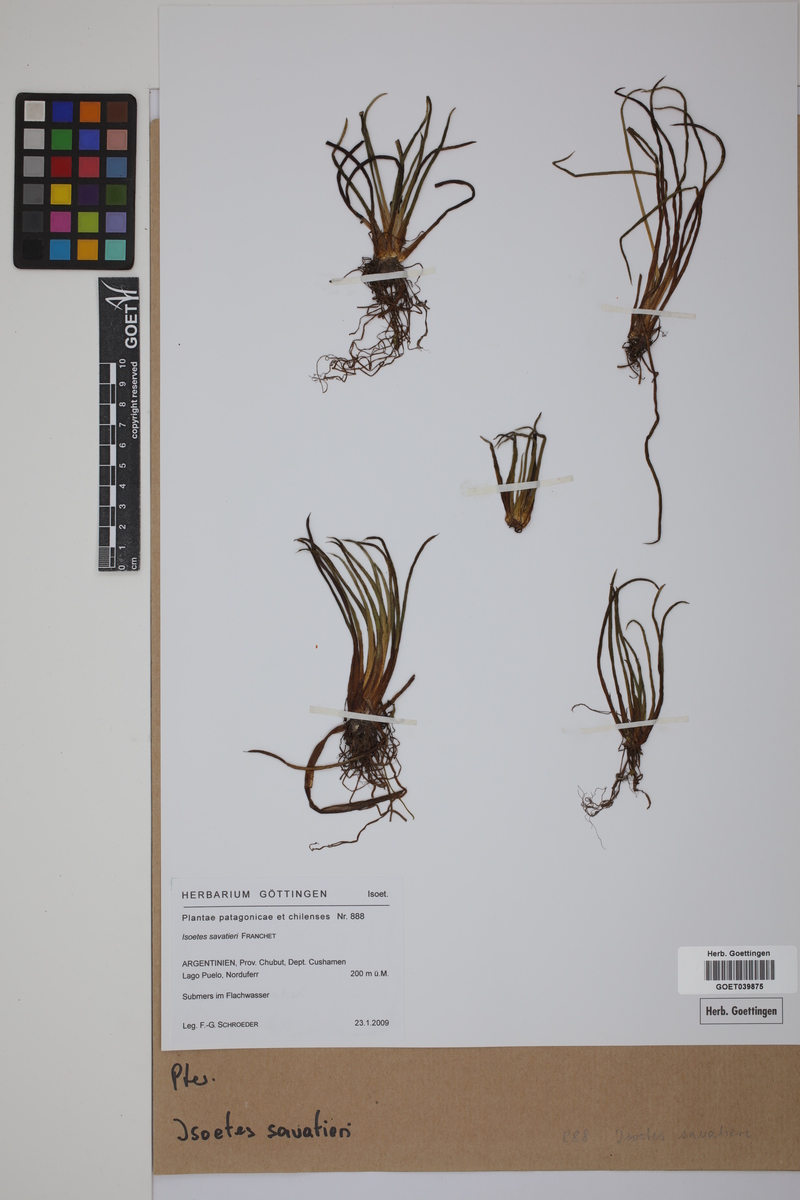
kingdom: Plantae
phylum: Tracheophyta
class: Lycopodiopsida
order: Isoetales
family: Isoetaceae
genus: Isoetes
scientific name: Isoetes savatieri
